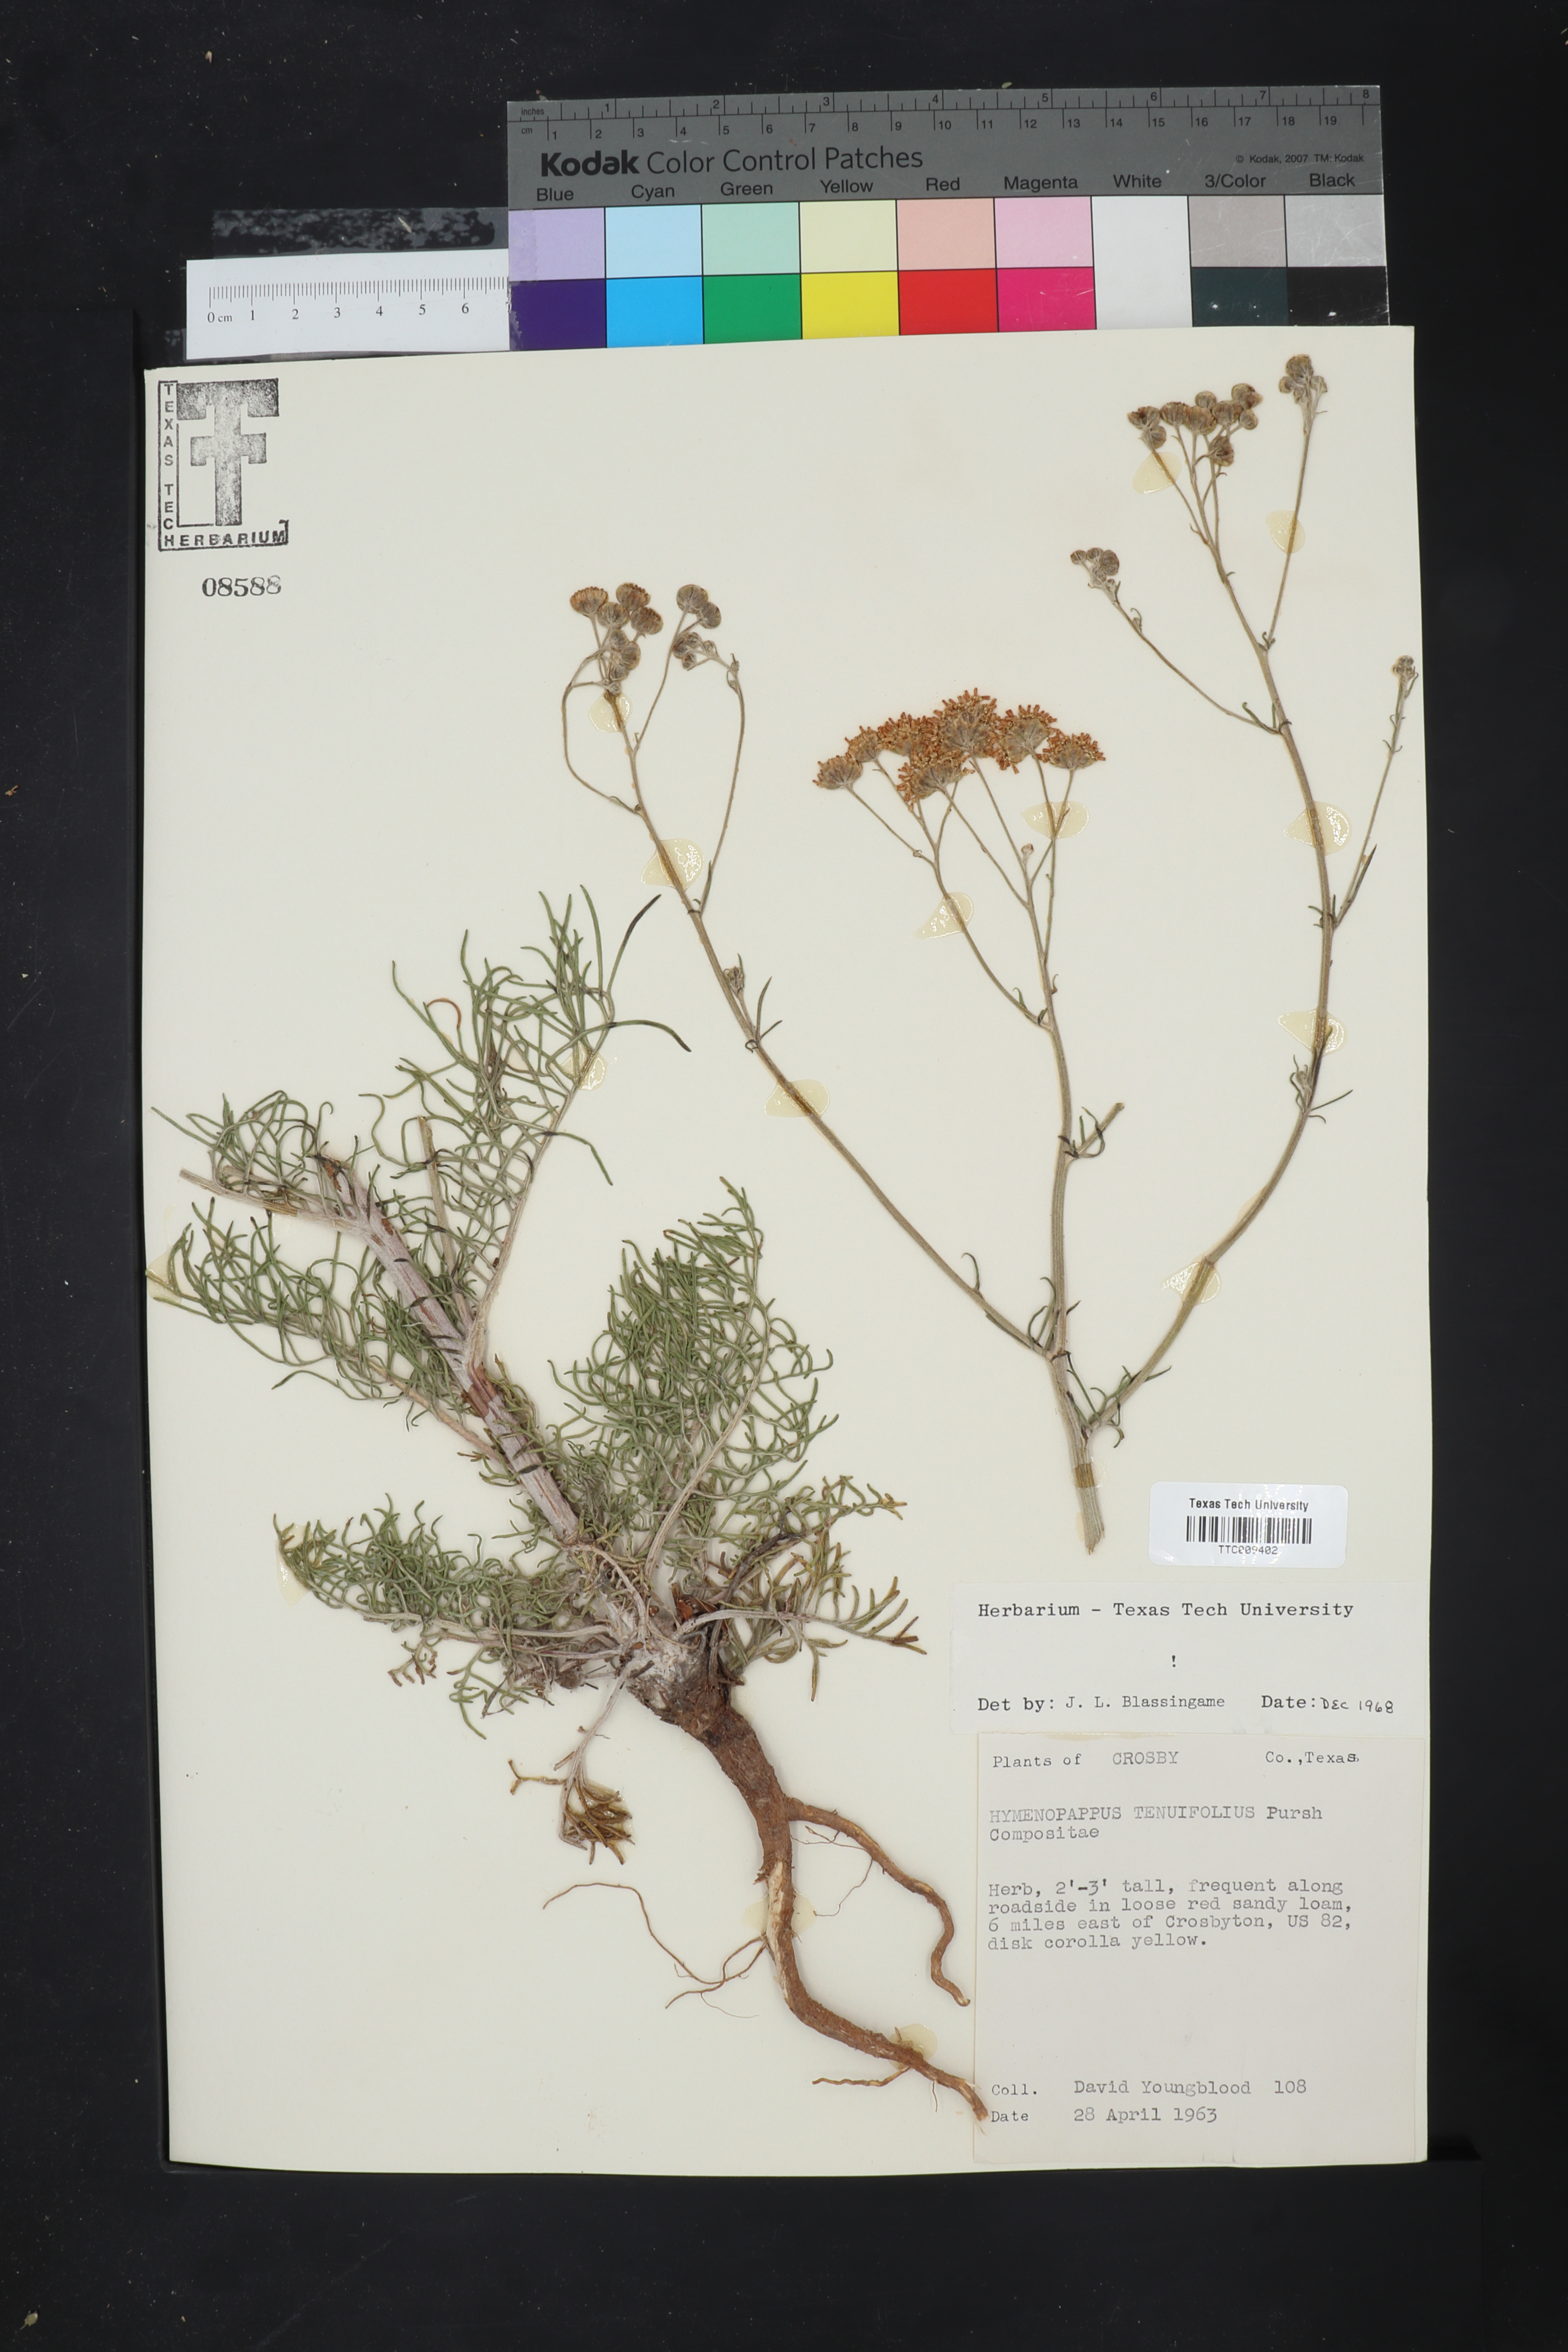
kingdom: Plantae
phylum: Tracheophyta
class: Magnoliopsida
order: Asterales
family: Asteraceae
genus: Hymenopappus
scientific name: Hymenopappus tenuifolius
